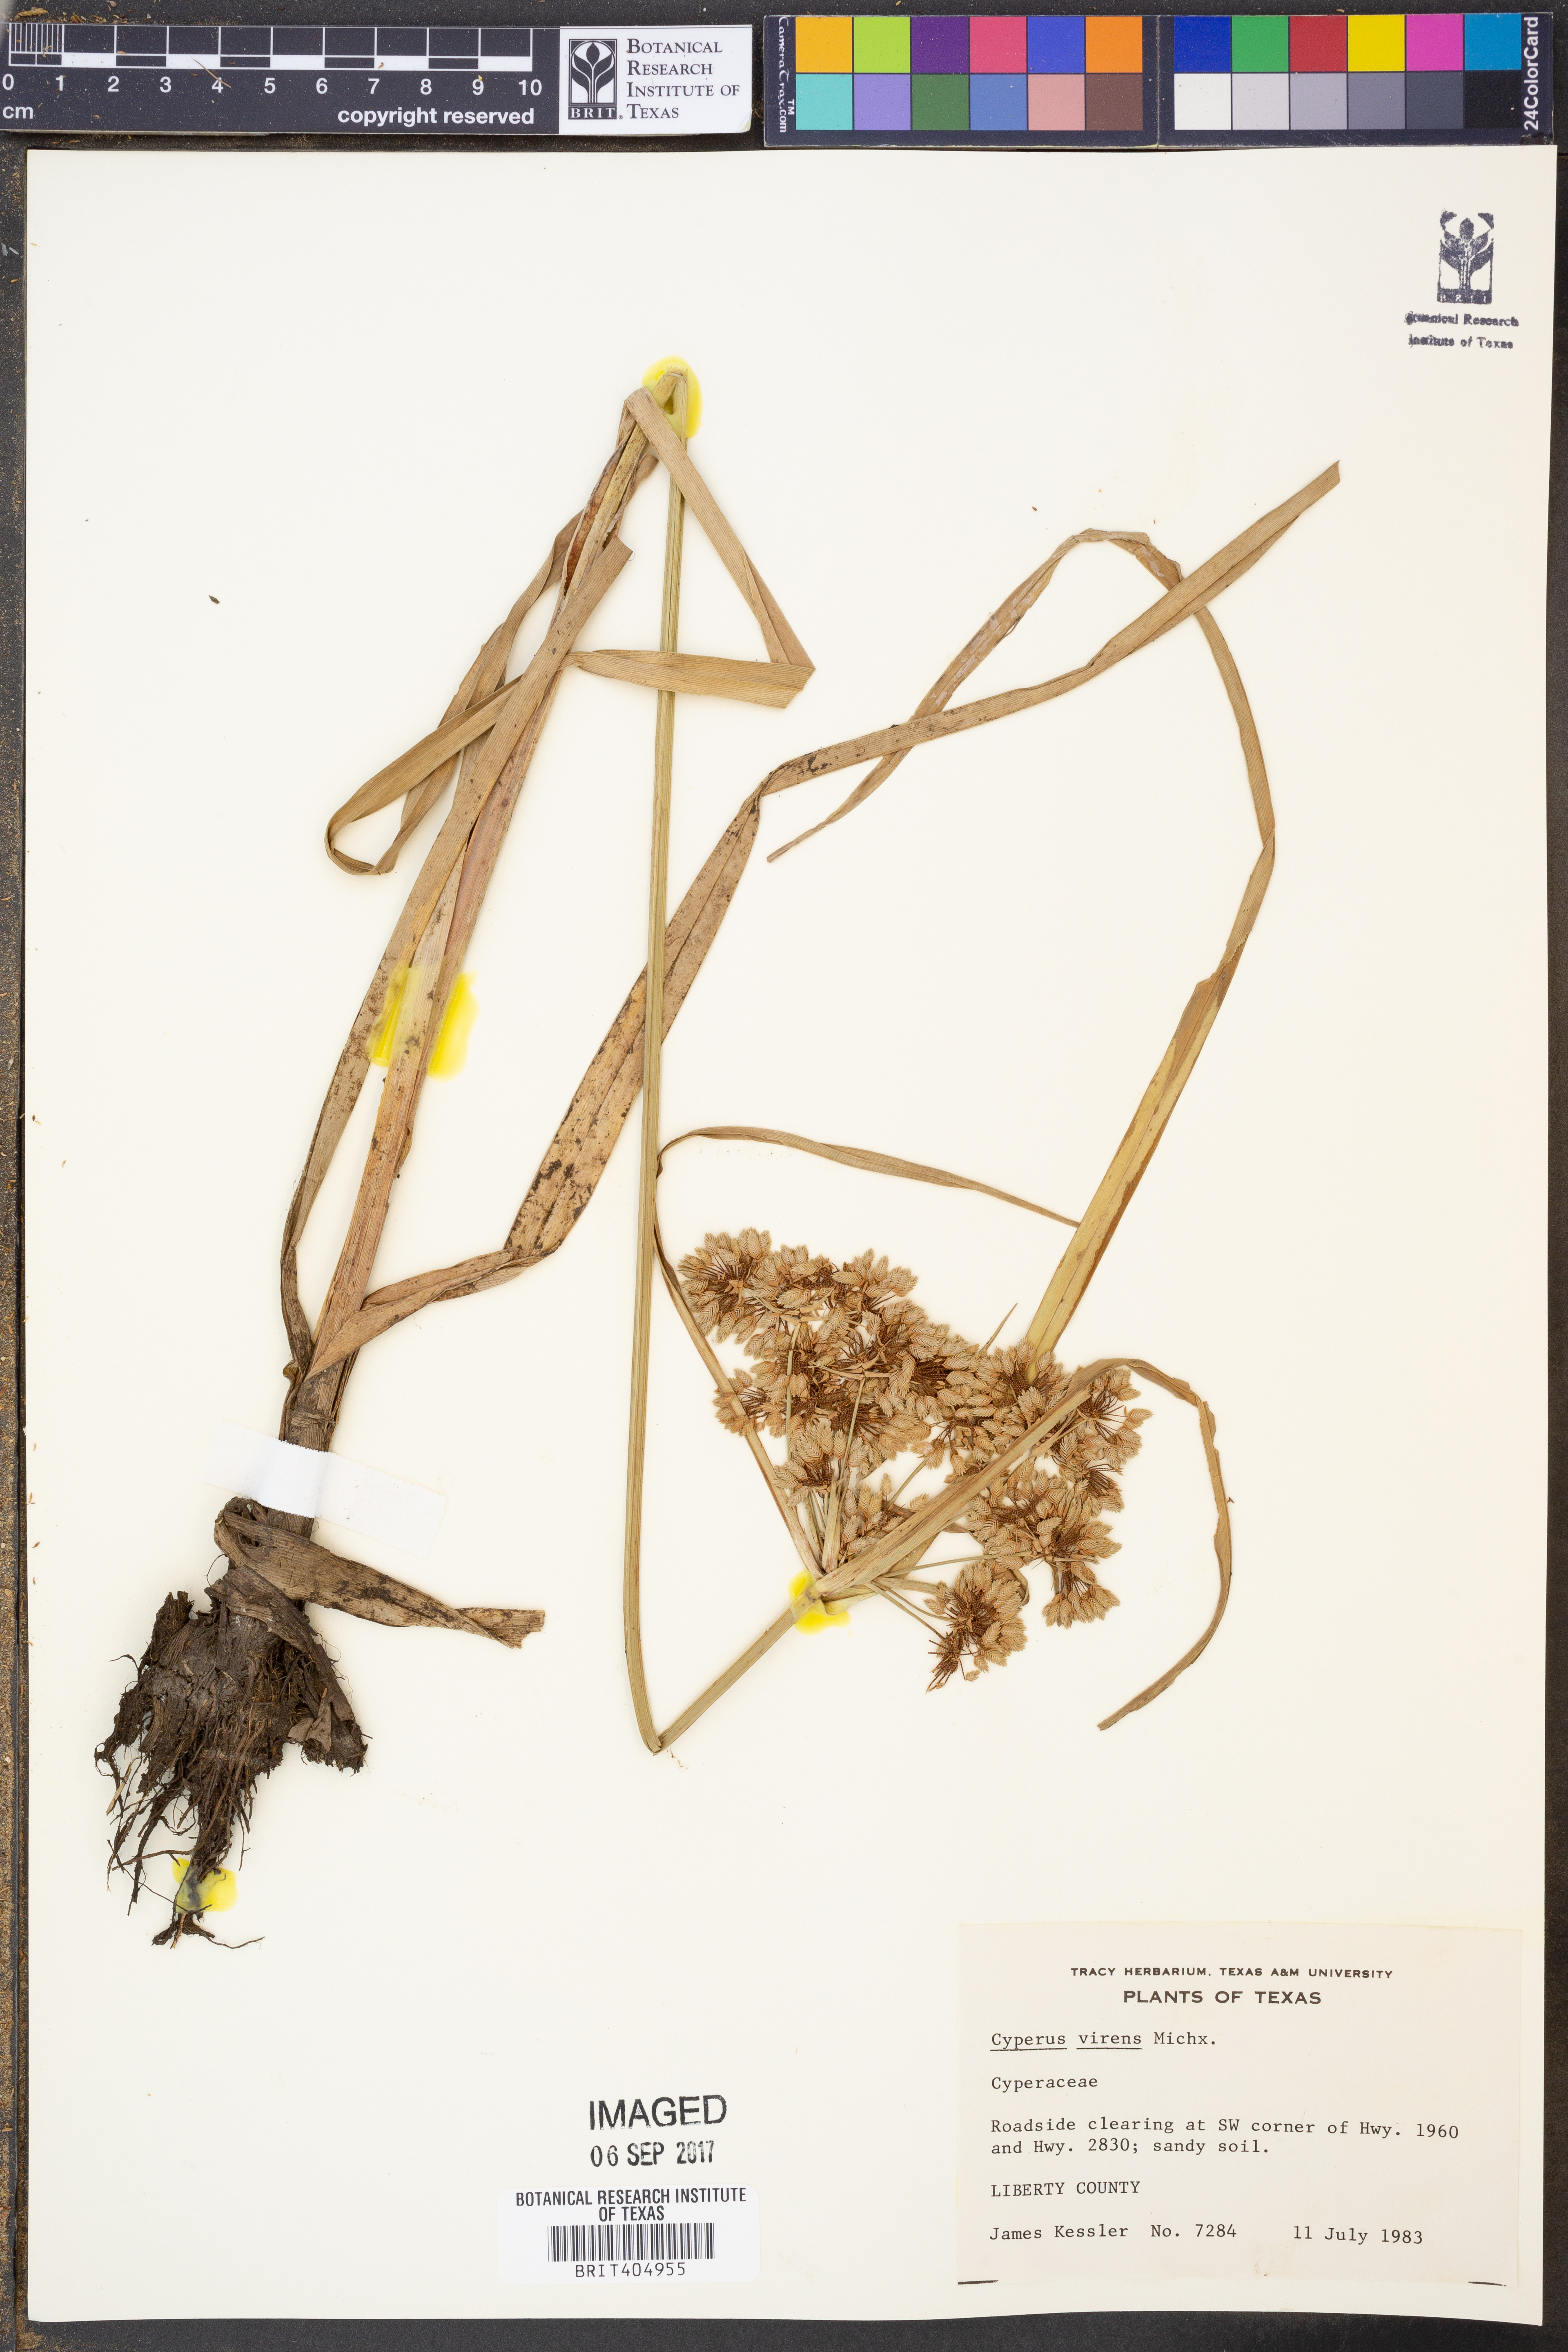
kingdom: Plantae
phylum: Tracheophyta
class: Liliopsida
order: Poales
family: Cyperaceae
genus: Cyperus
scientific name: Cyperus virens
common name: Green flatsedge
